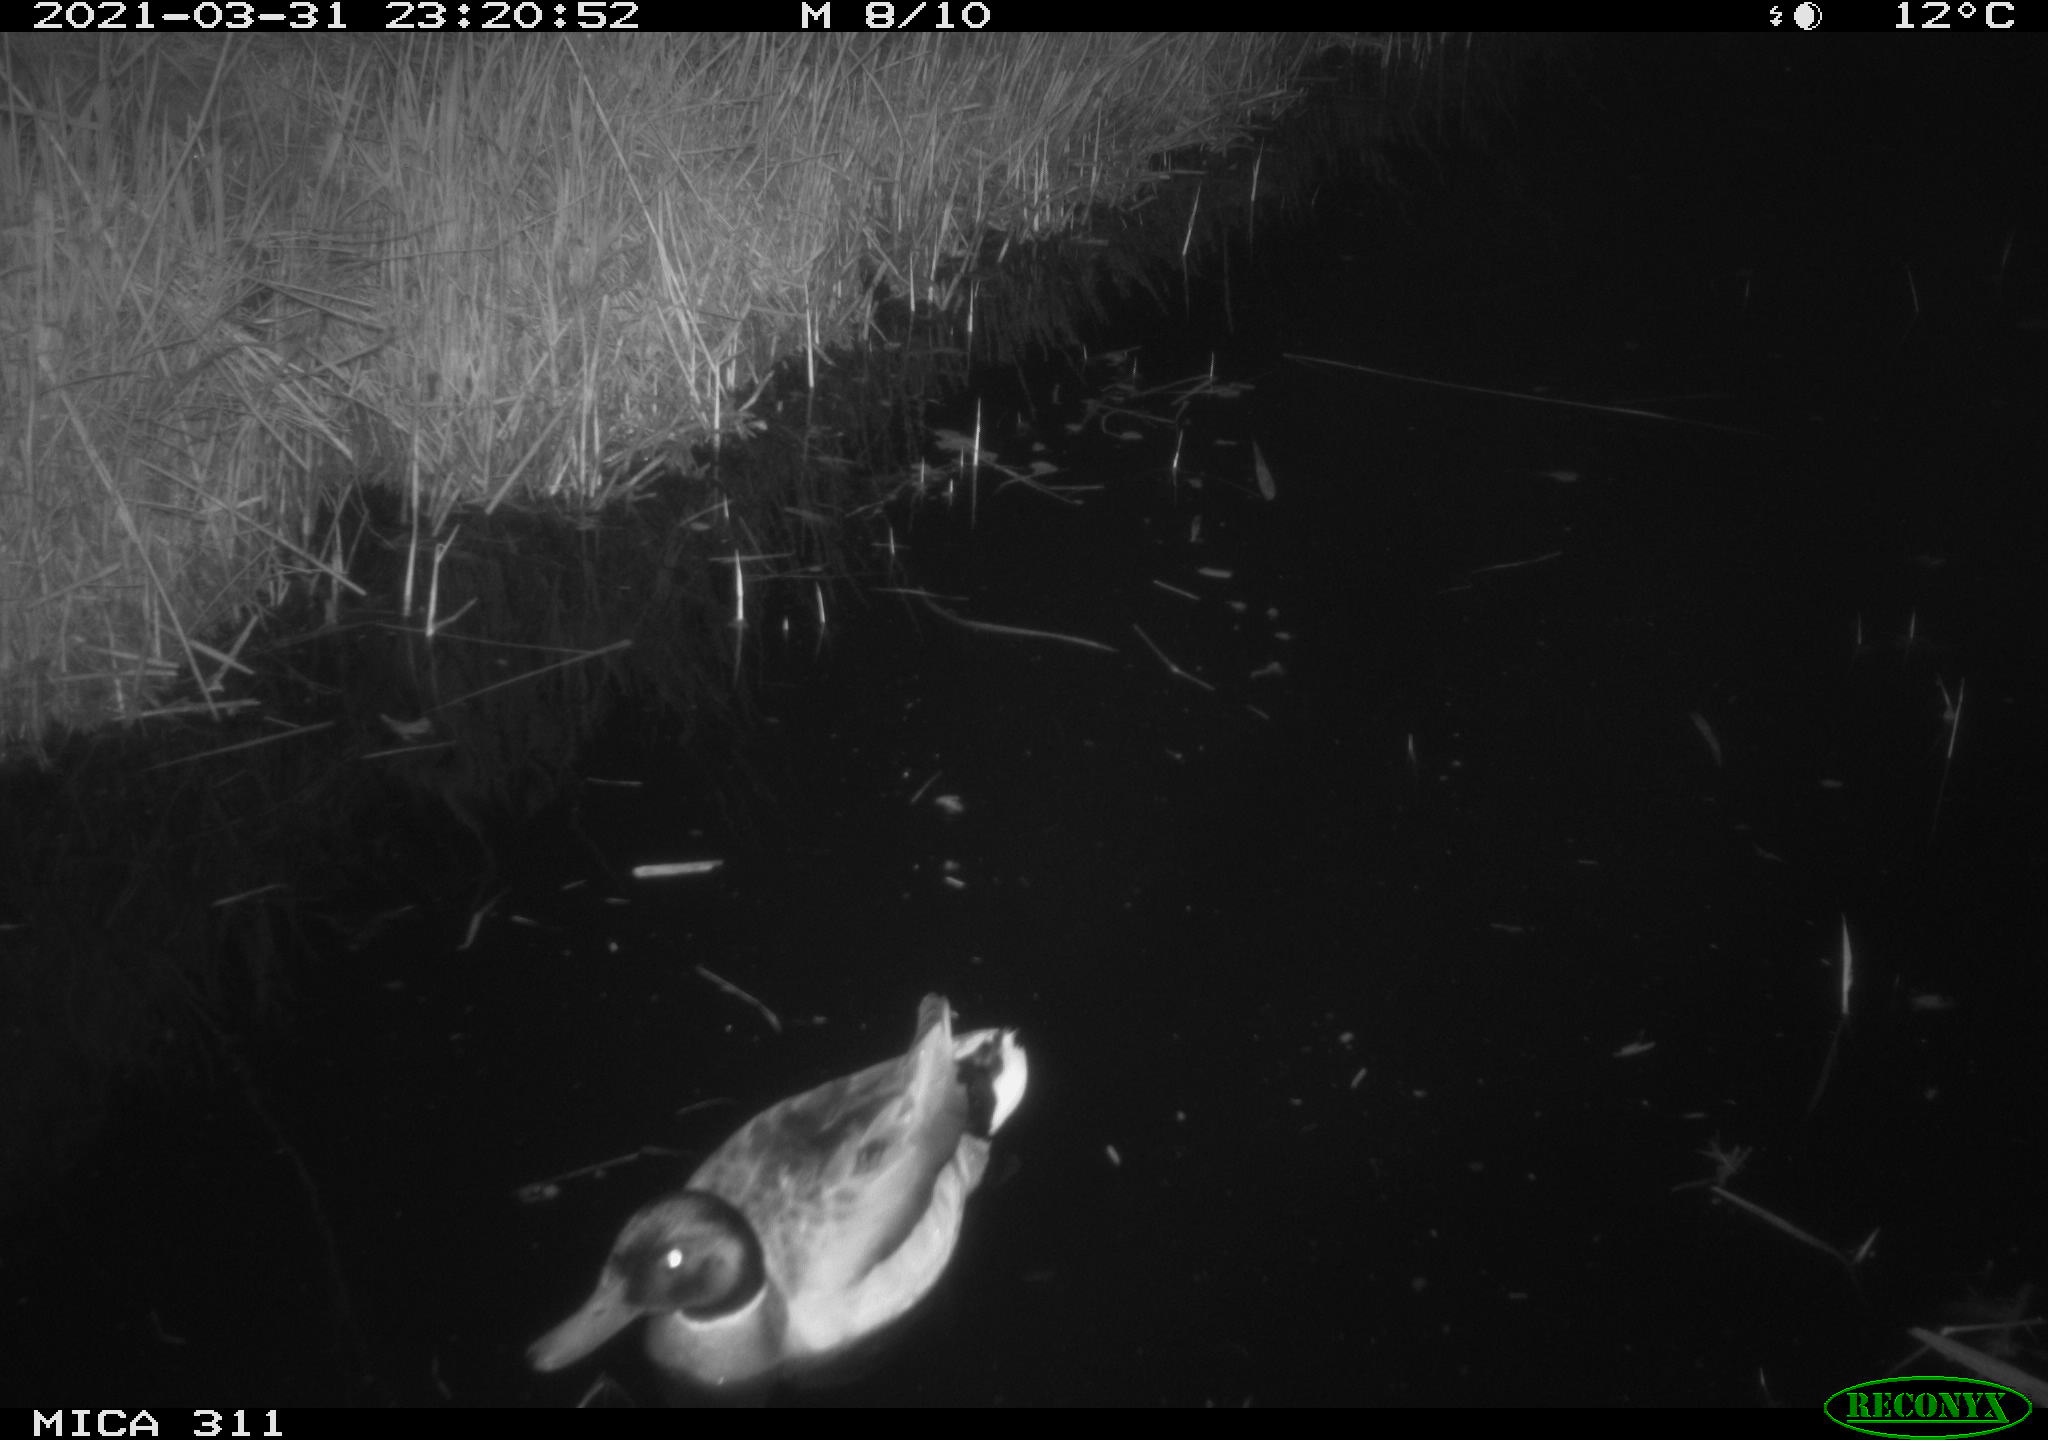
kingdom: Animalia
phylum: Chordata
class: Aves
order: Anseriformes
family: Anatidae
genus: Anas
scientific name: Anas platyrhynchos
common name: Mallard
